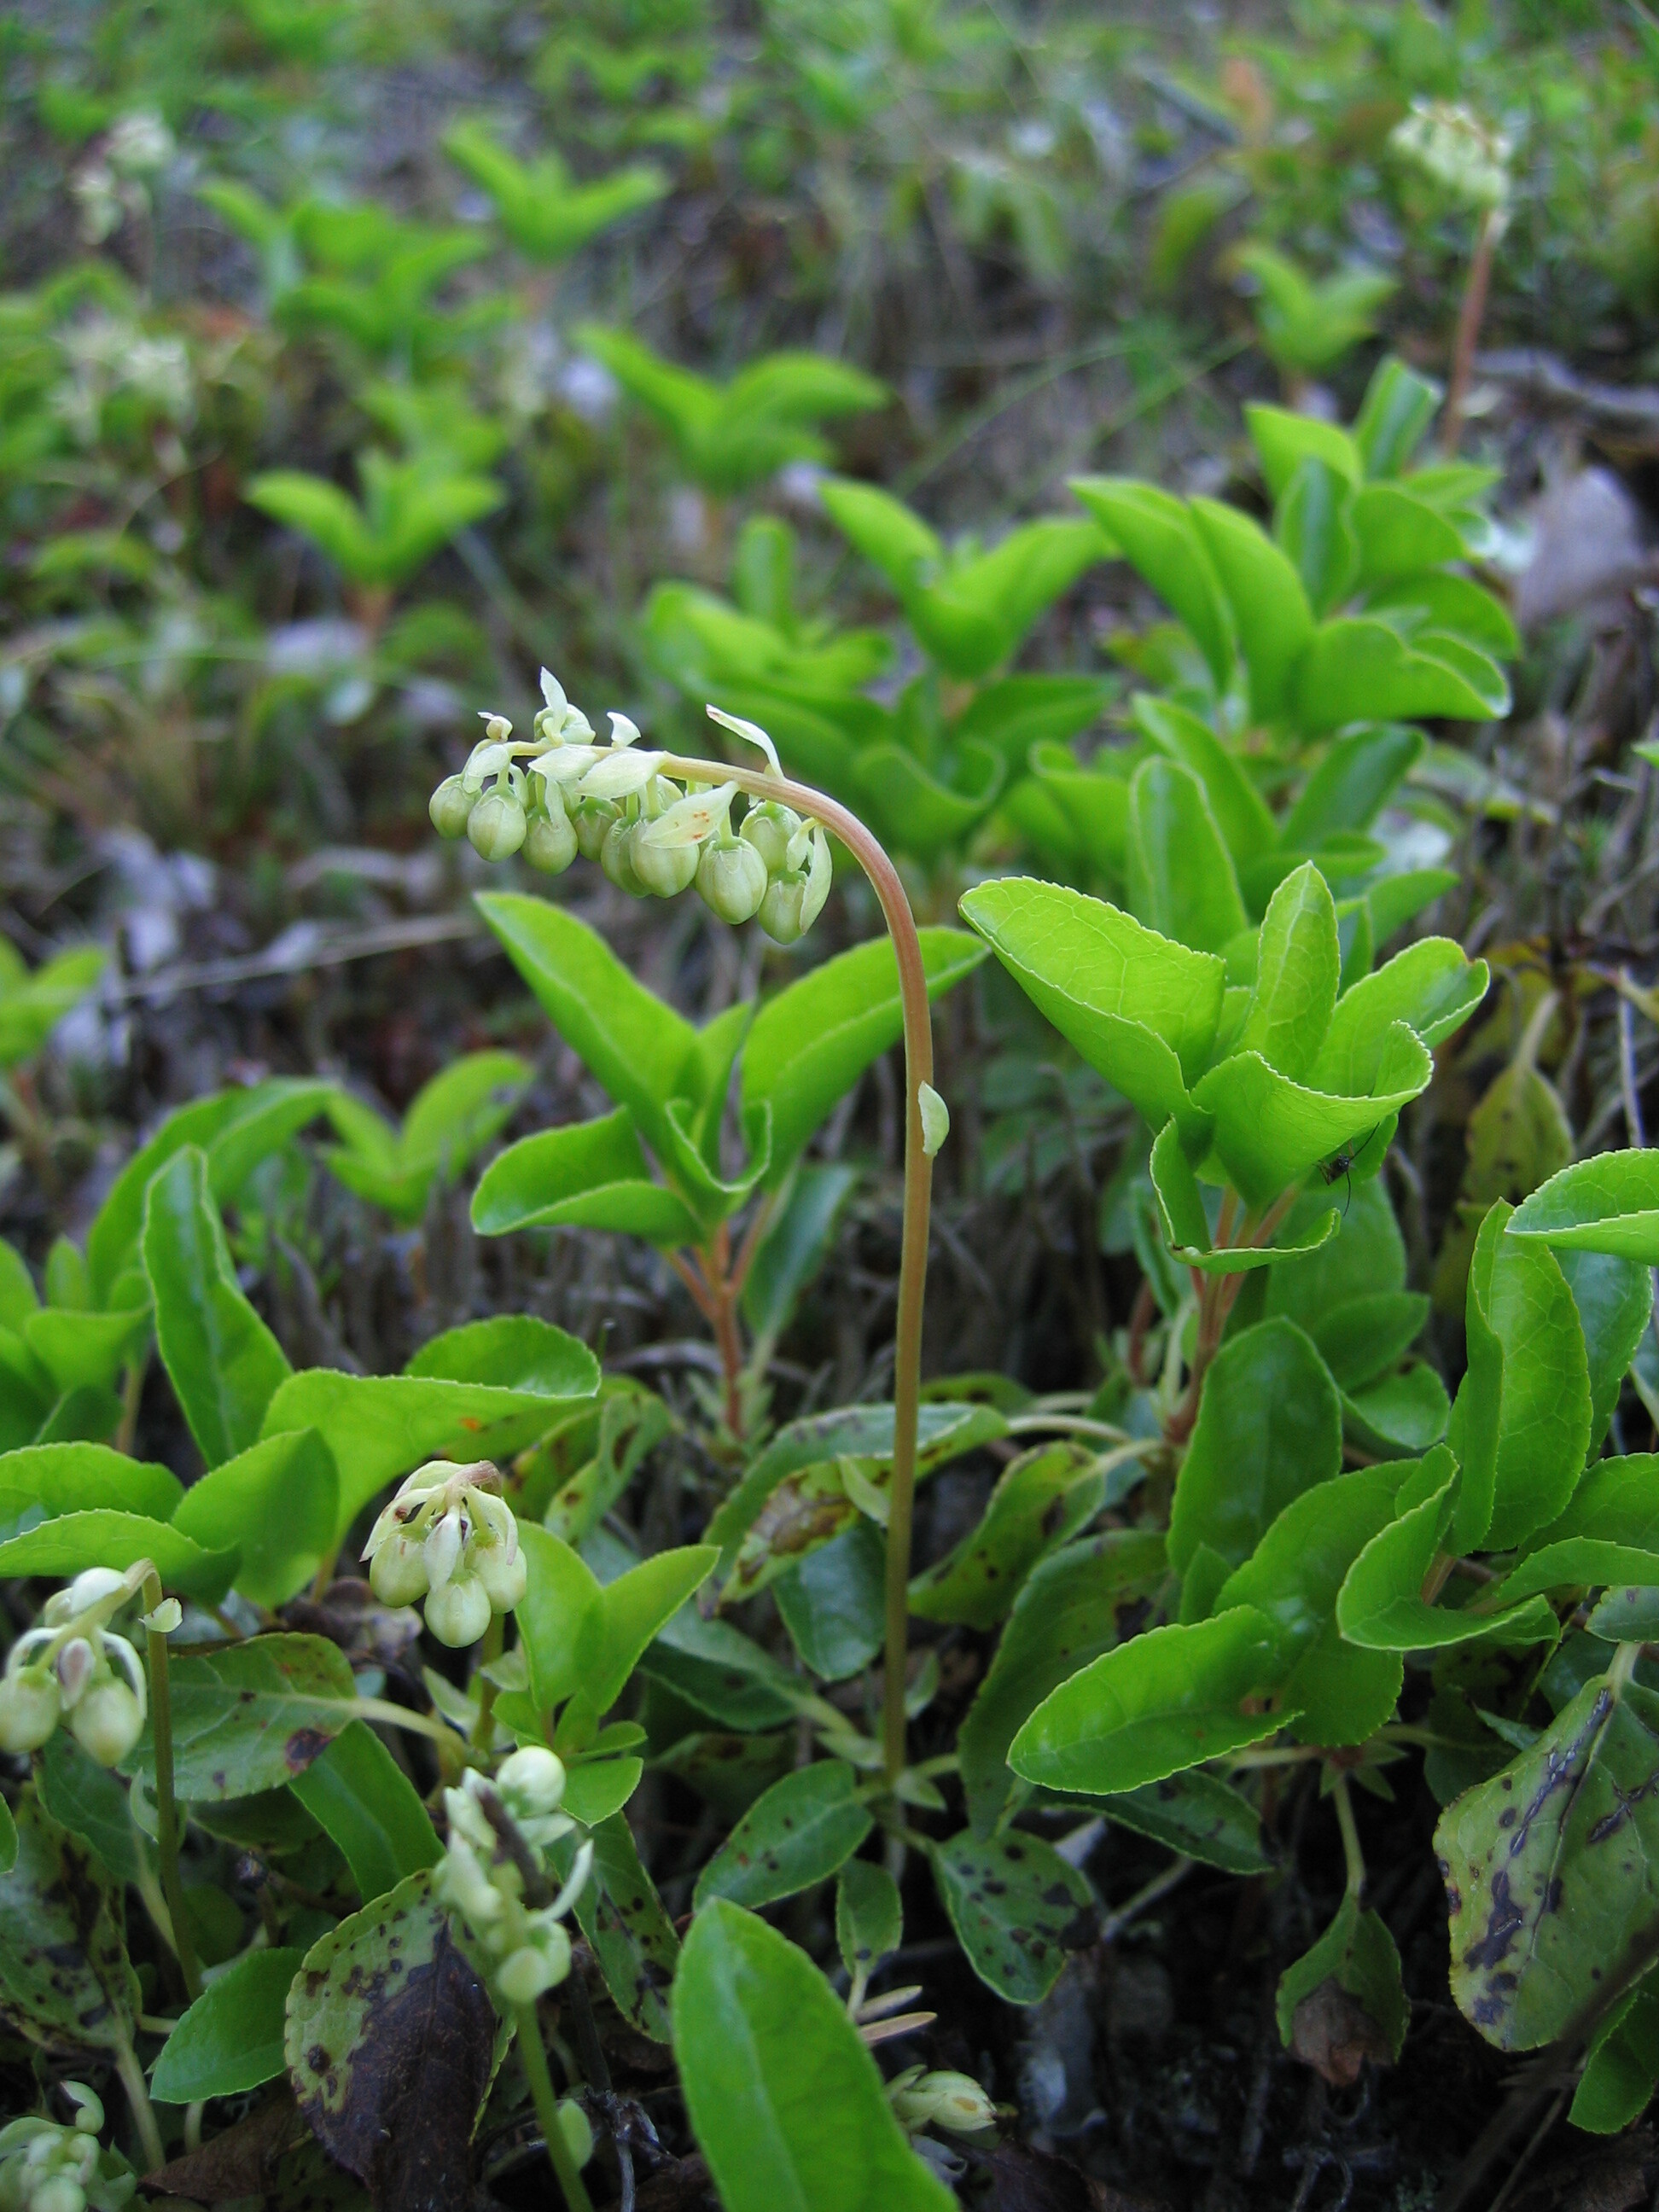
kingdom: Plantae
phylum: Tracheophyta
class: Magnoliopsida
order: Ericales
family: Ericaceae
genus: Orthilia
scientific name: Orthilia secunda
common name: One-sided orthilia
